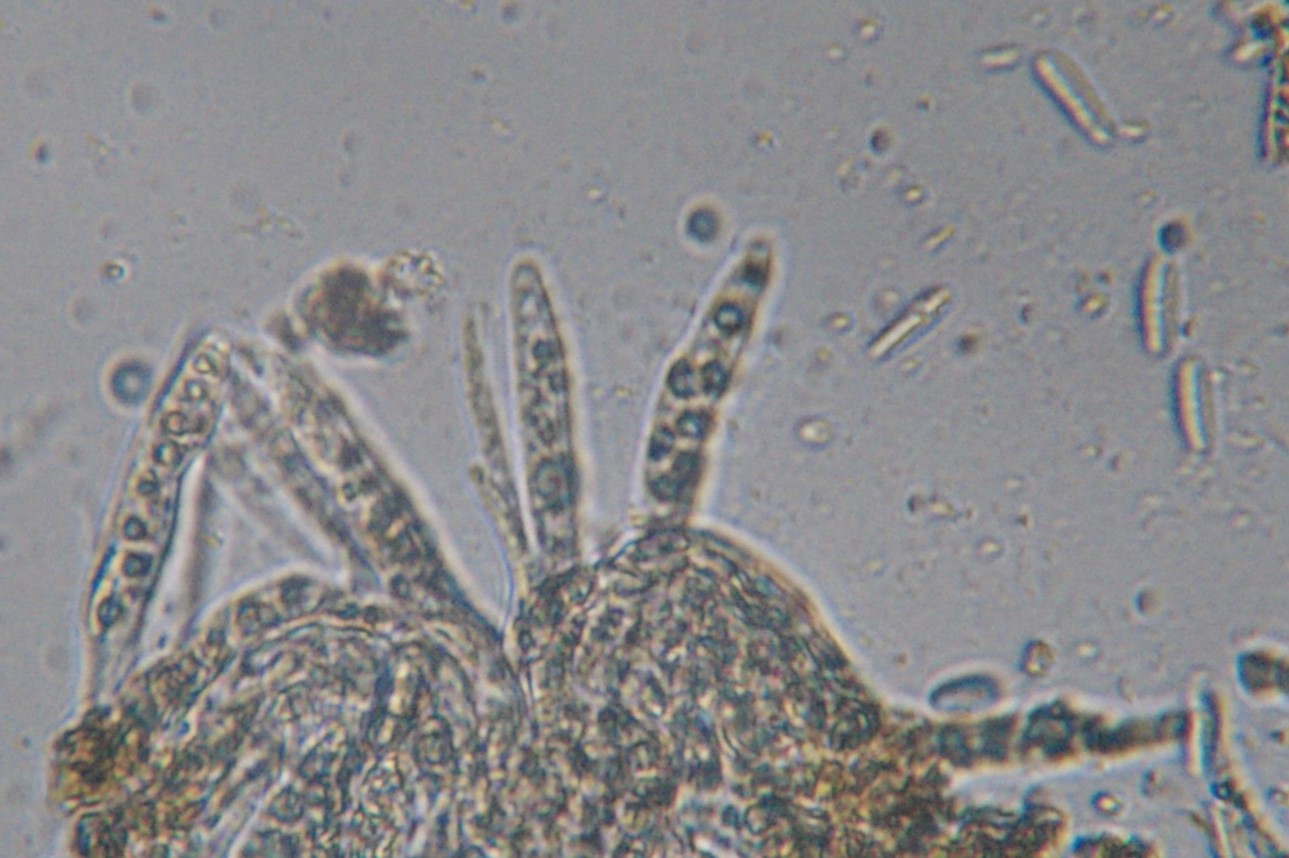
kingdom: Fungi
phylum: Ascomycota
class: Leotiomycetes
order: Helotiales
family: Cenangiaceae
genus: Trochila
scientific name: Trochila laurocerasi
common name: kirsebær-lågskive
